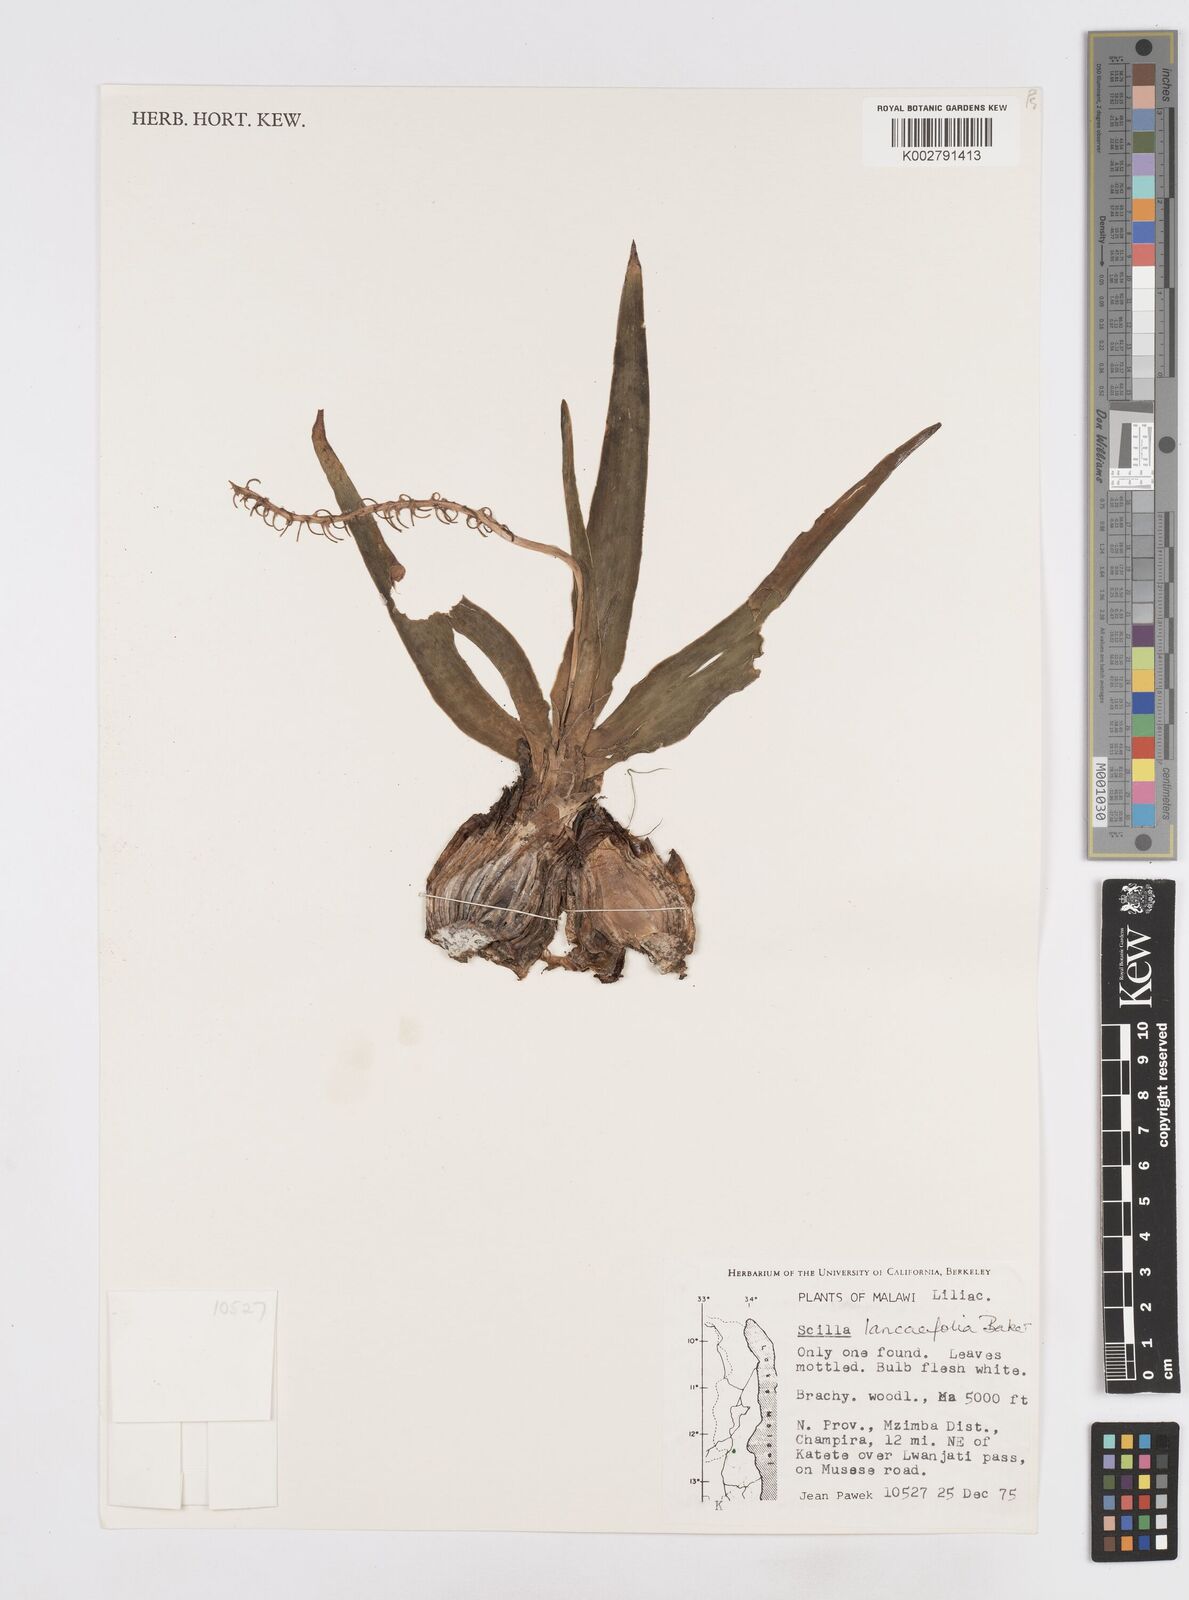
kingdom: Plantae
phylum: Tracheophyta
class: Liliopsida
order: Asparagales
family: Asparagaceae
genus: Ledebouria
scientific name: Ledebouria revoluta
